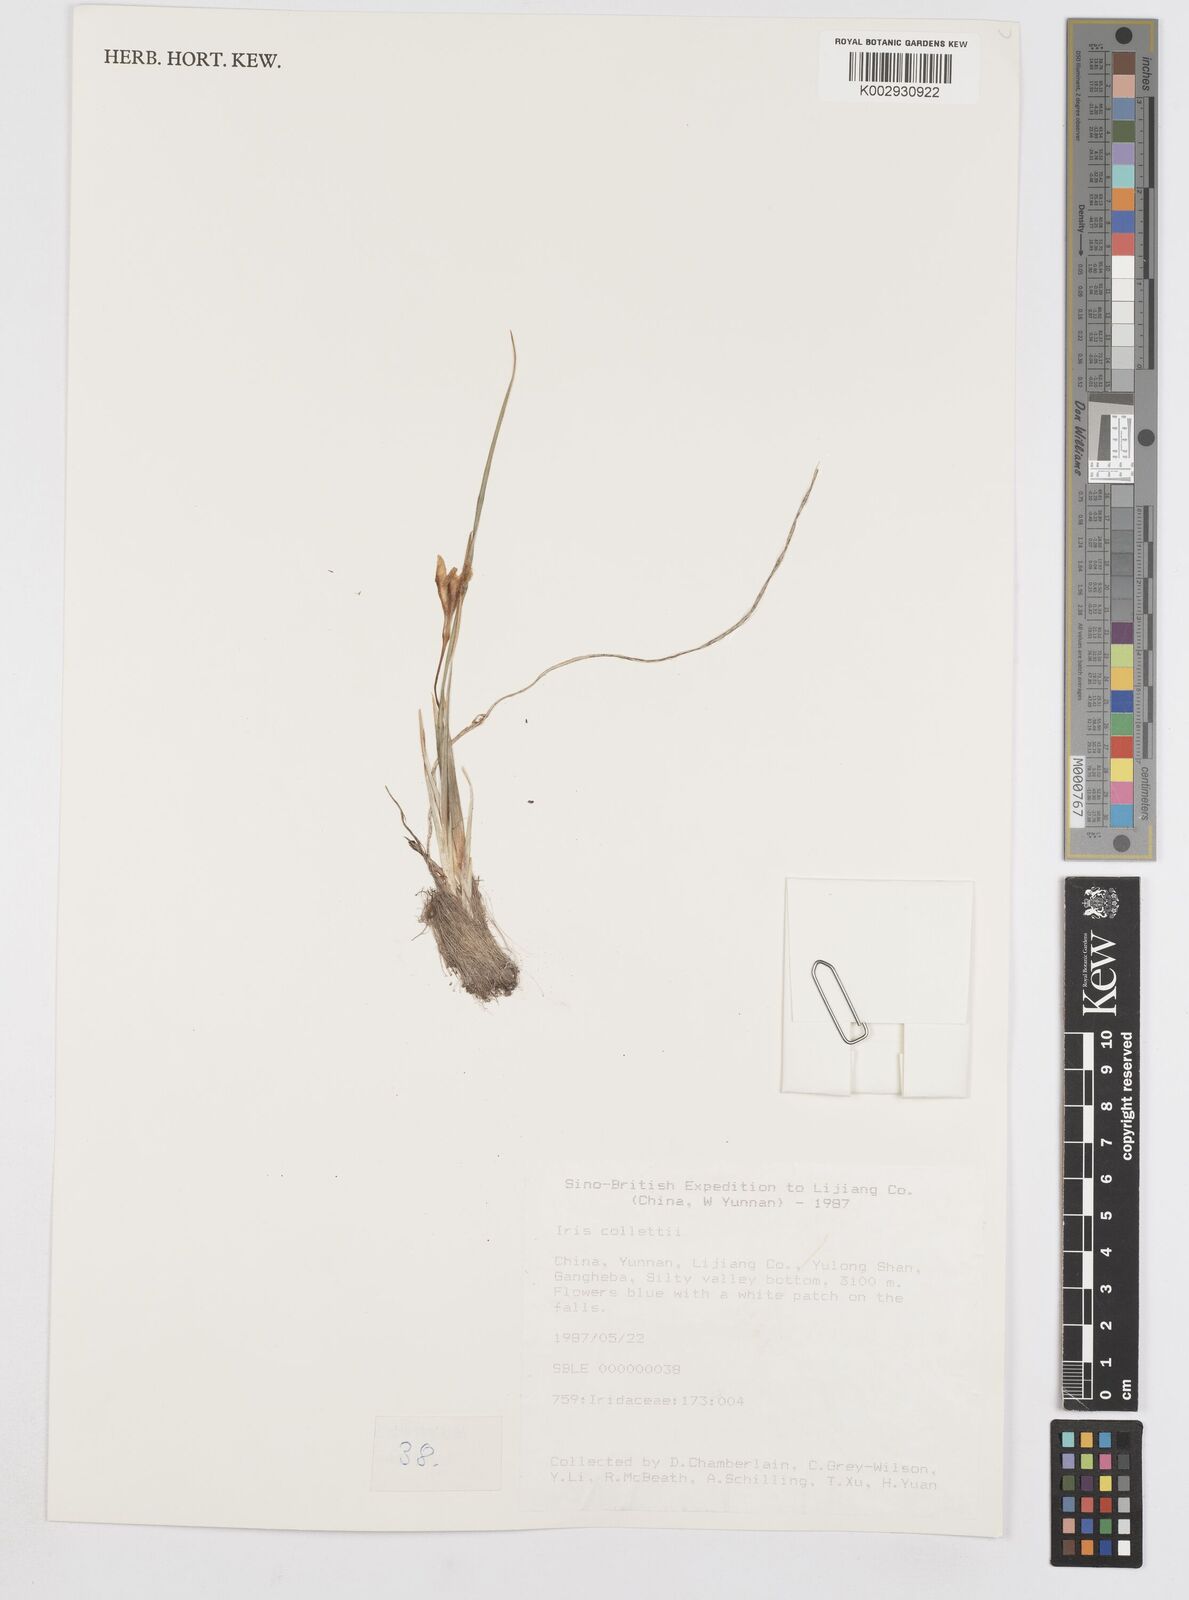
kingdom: Plantae
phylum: Tracheophyta
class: Liliopsida
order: Asparagales
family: Iridaceae
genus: Iris
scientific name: Iris collettii
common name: Plateau iris
